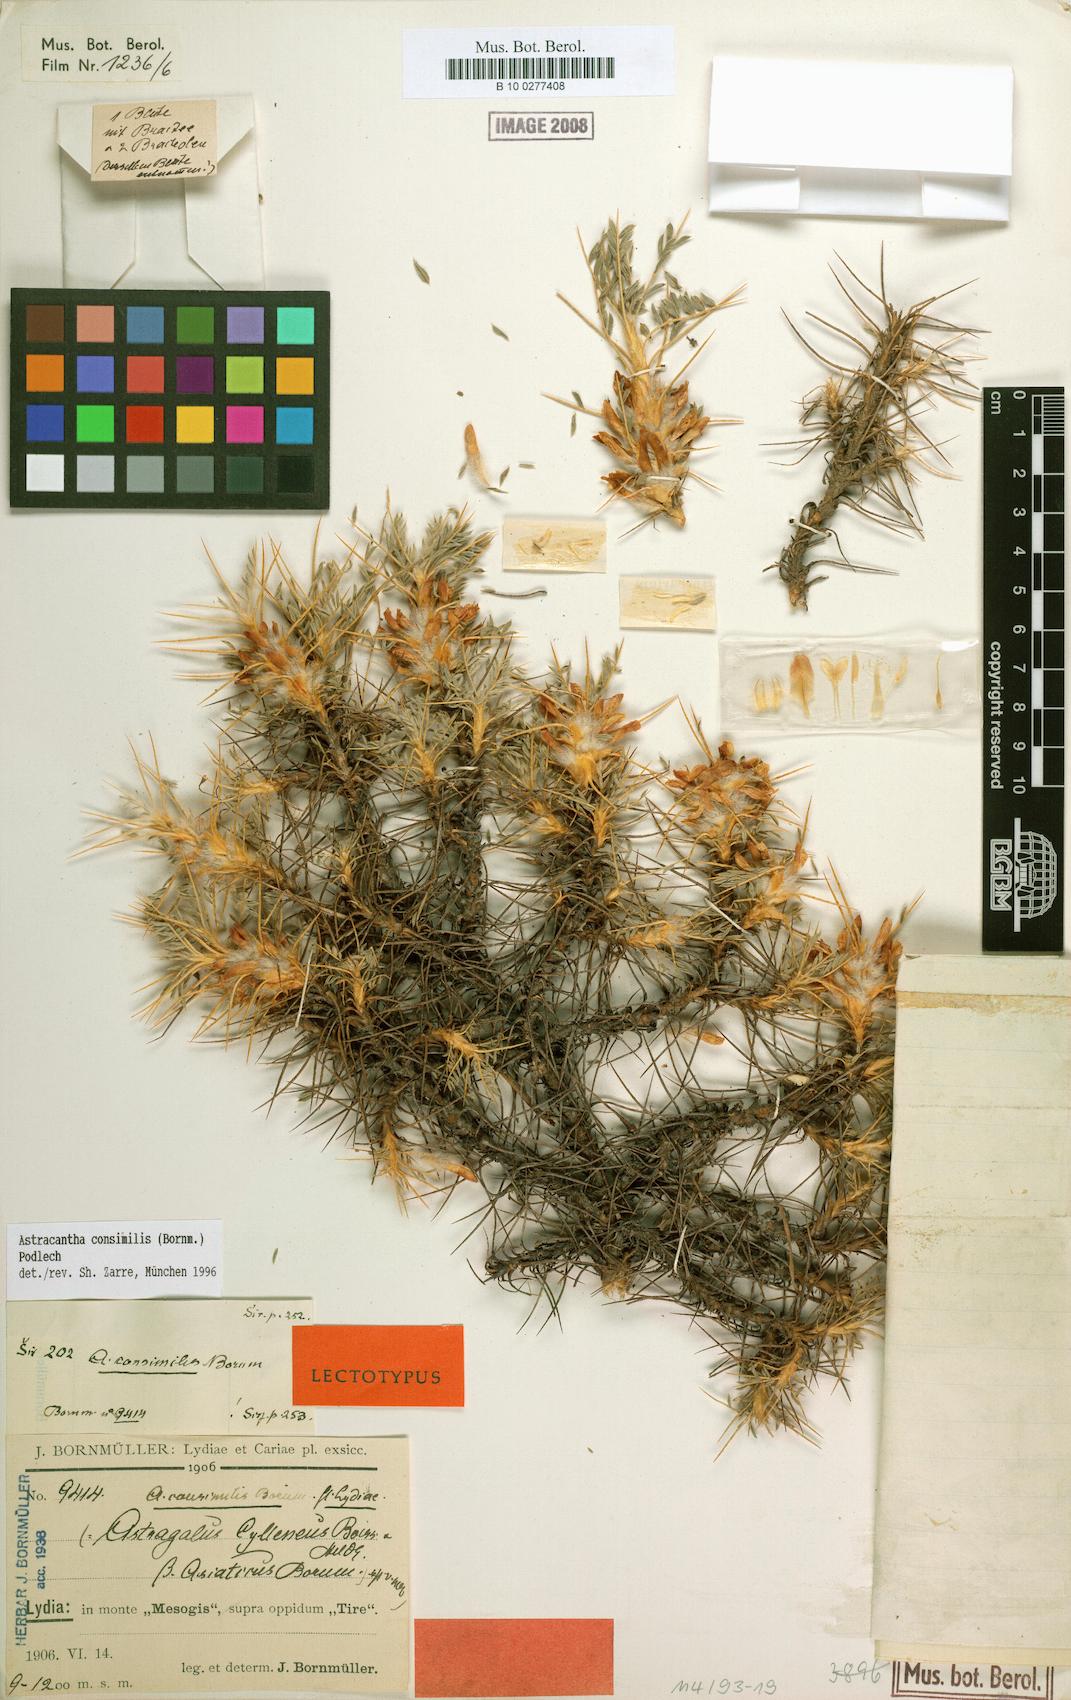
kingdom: Plantae
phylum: Tracheophyta
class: Magnoliopsida
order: Fabales
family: Fabaceae
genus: Astragalus
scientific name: Astragalus consimilis
